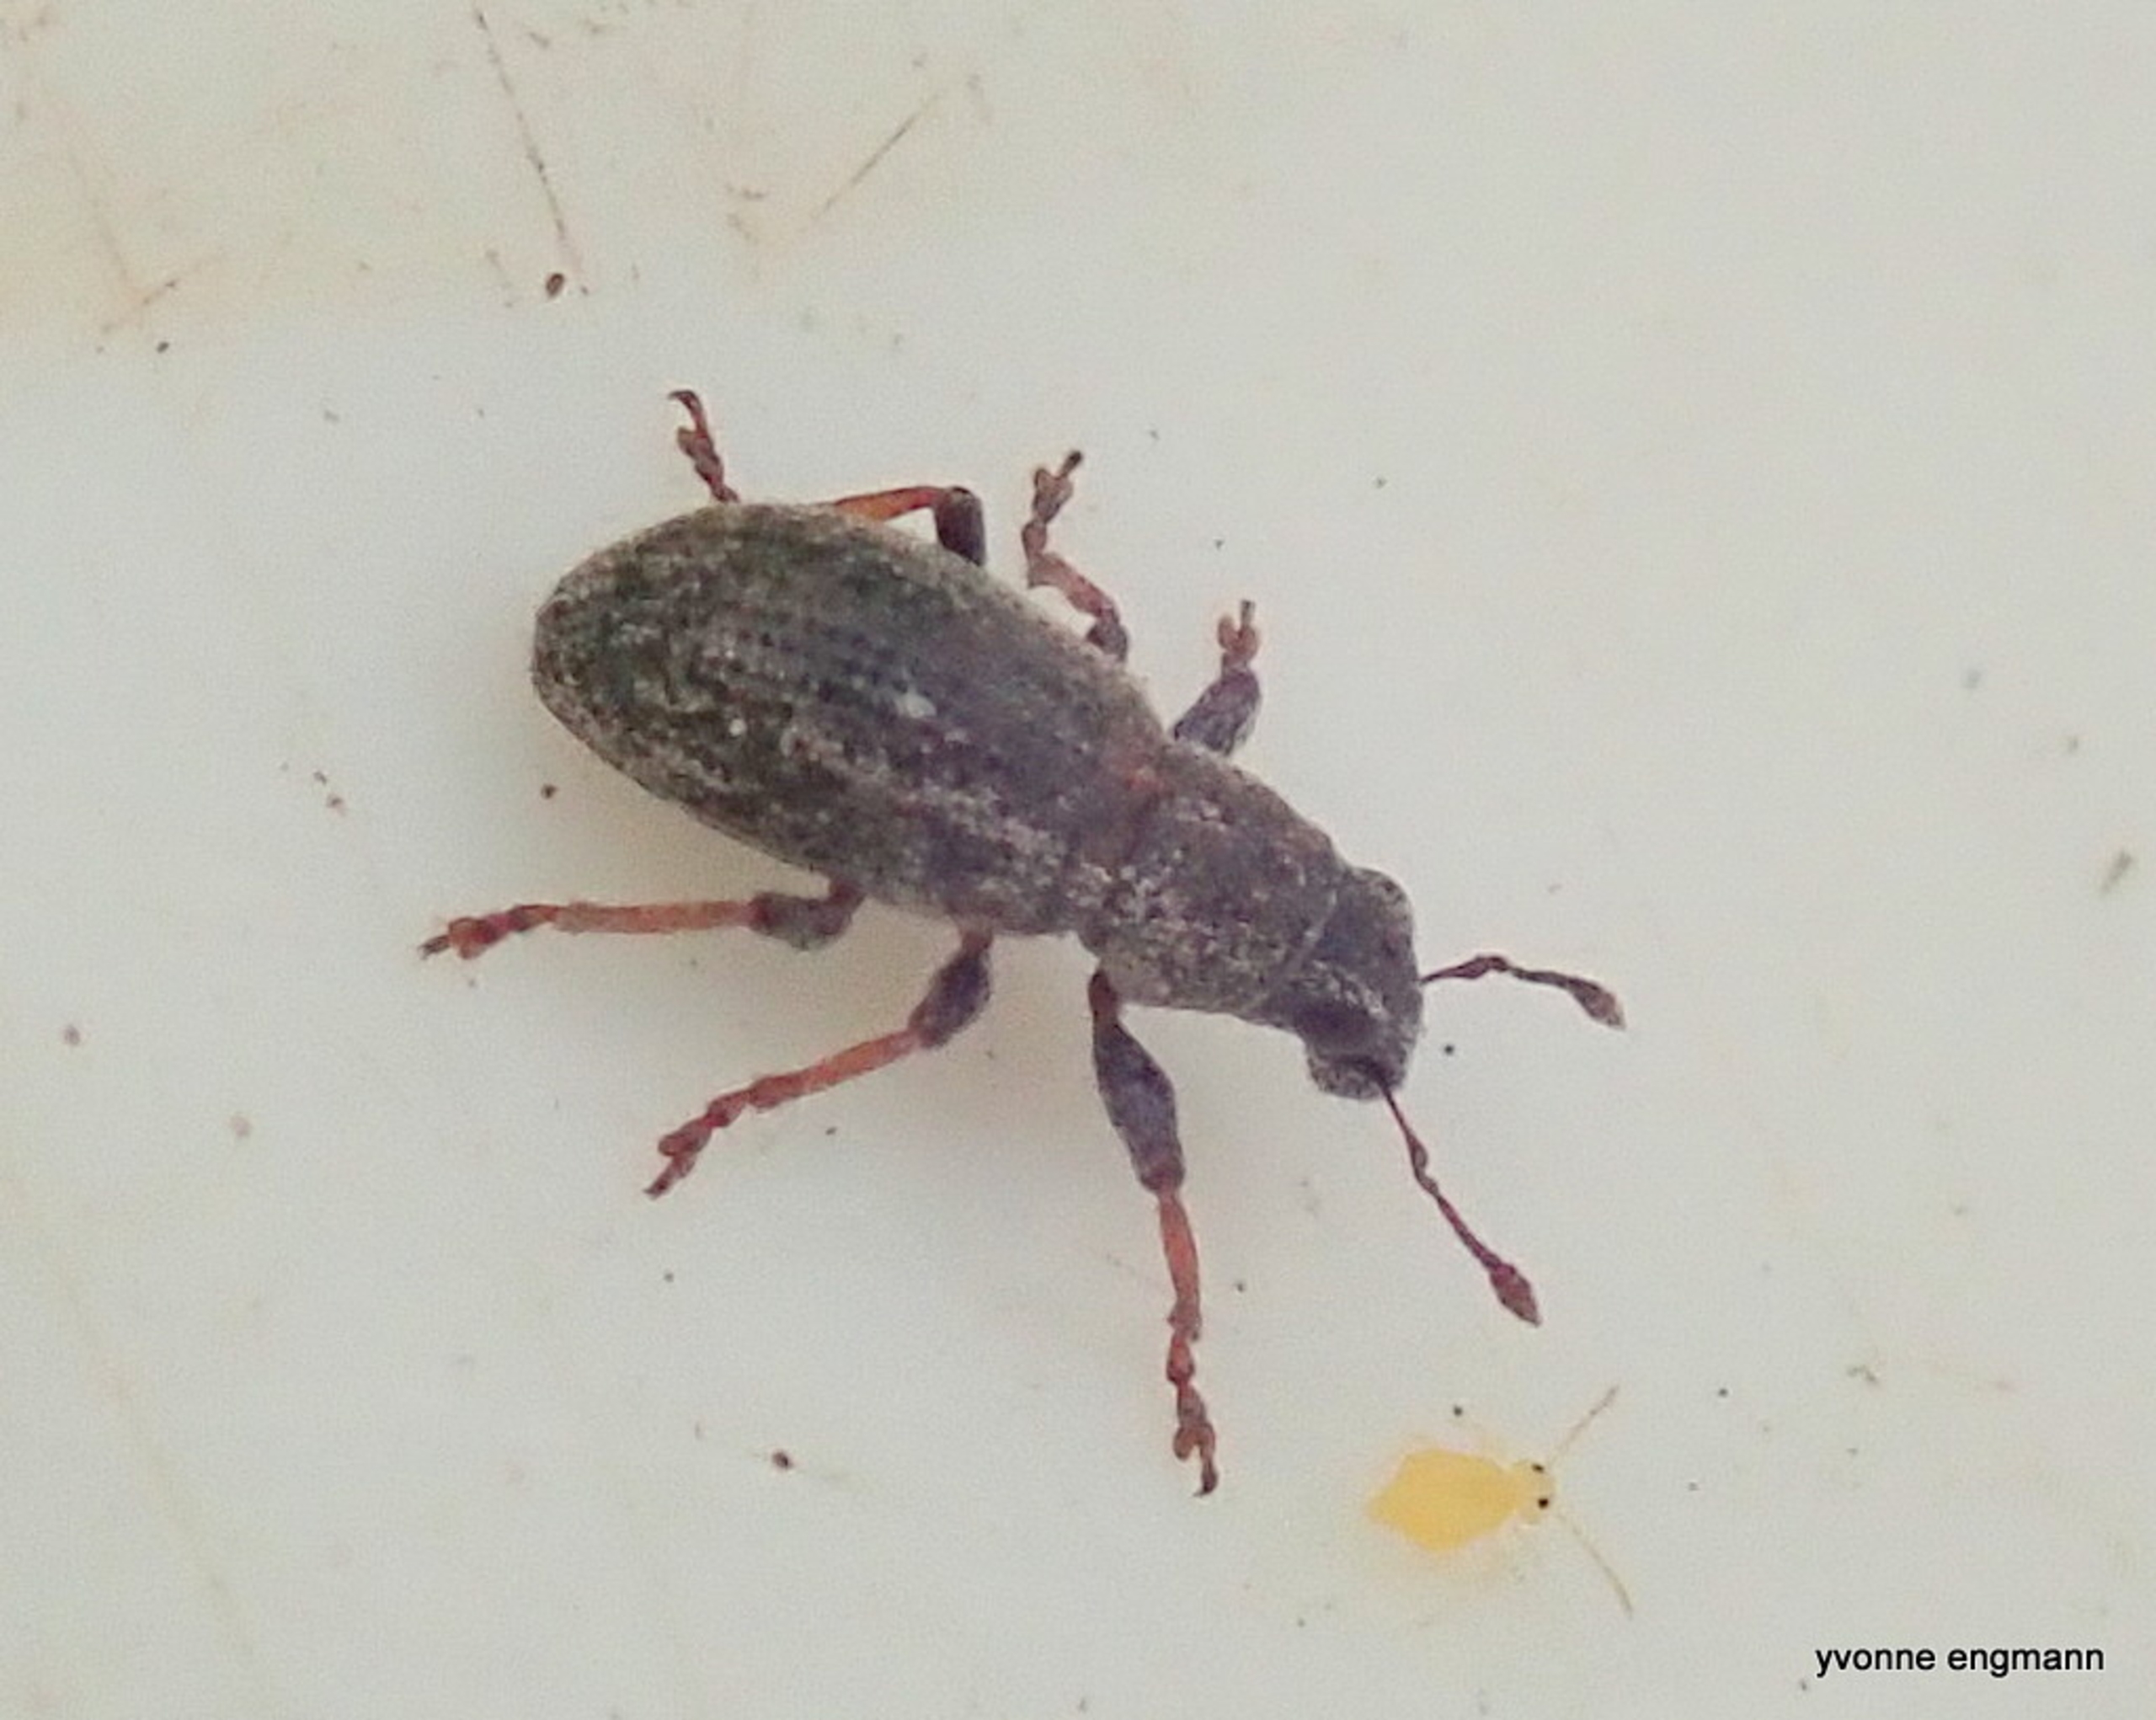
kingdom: Animalia
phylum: Arthropoda
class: Insecta
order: Coleoptera
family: Curculionidae
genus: Sitona
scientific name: Sitona ambiguus
